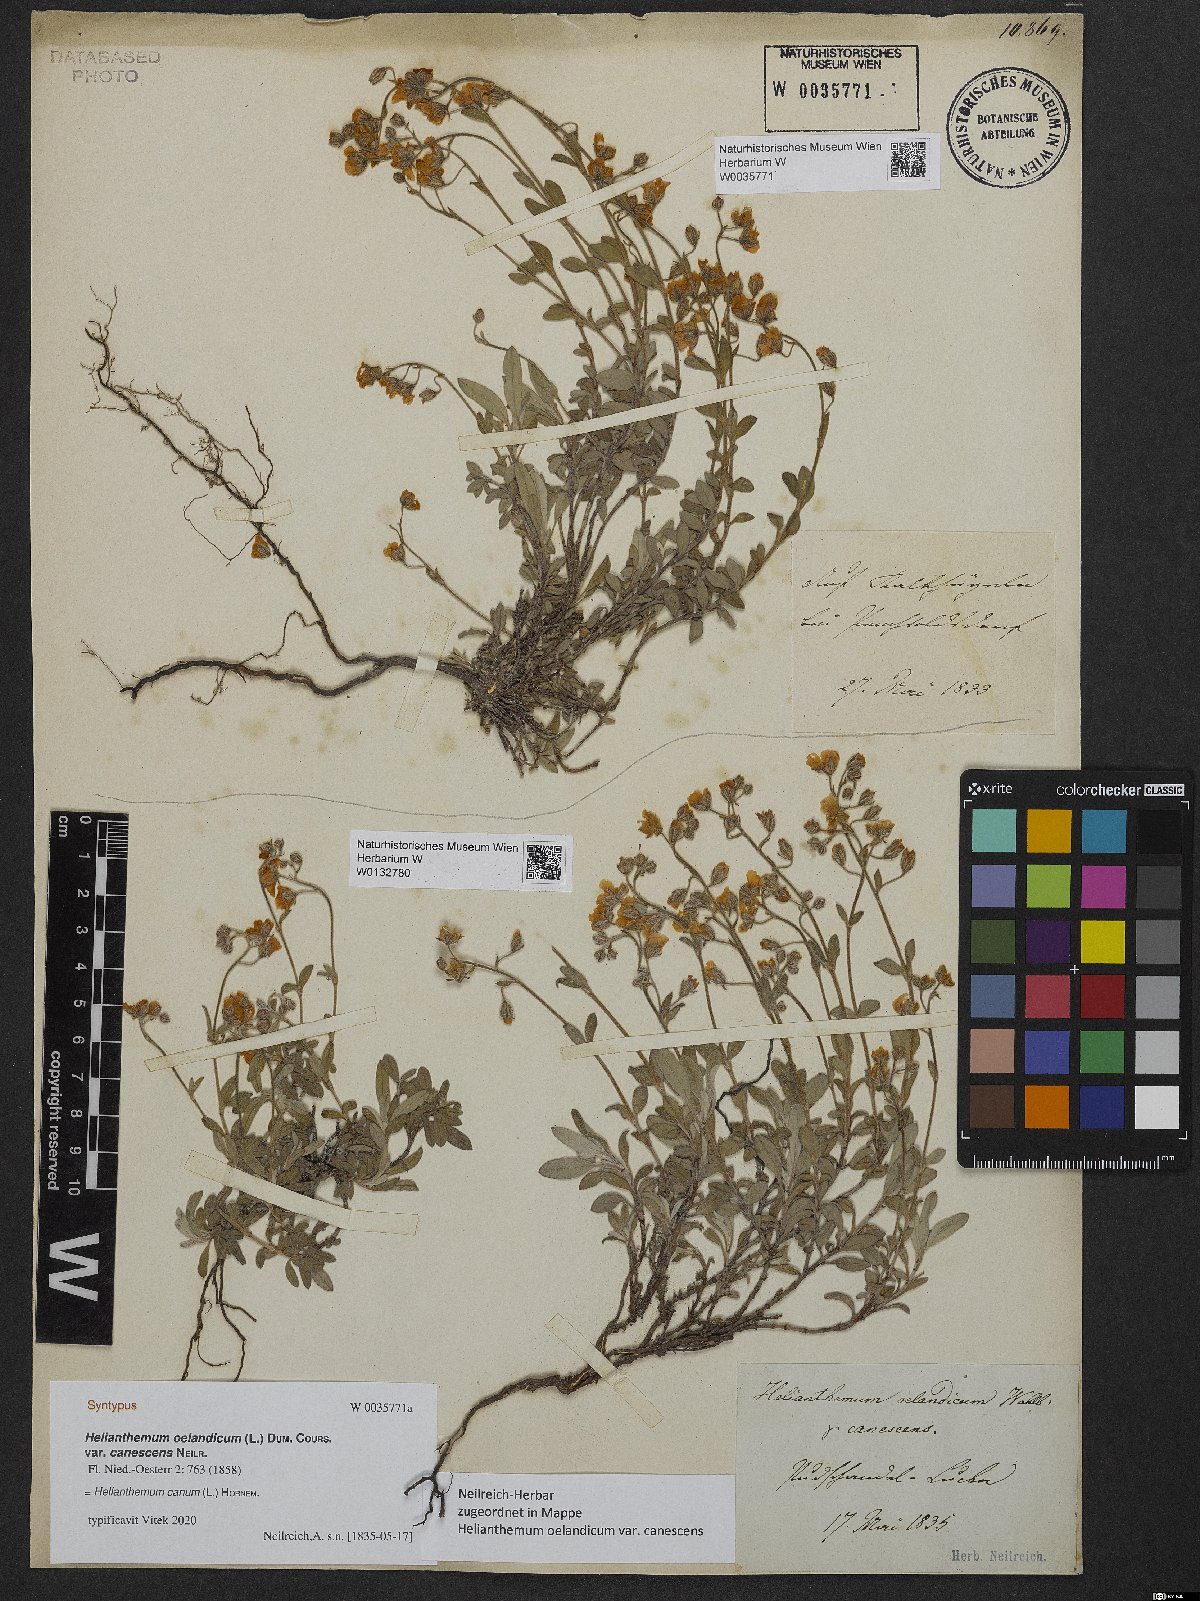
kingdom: Plantae
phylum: Tracheophyta
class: Magnoliopsida
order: Malvales
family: Cistaceae
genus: Helianthemum
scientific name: Helianthemum canum
